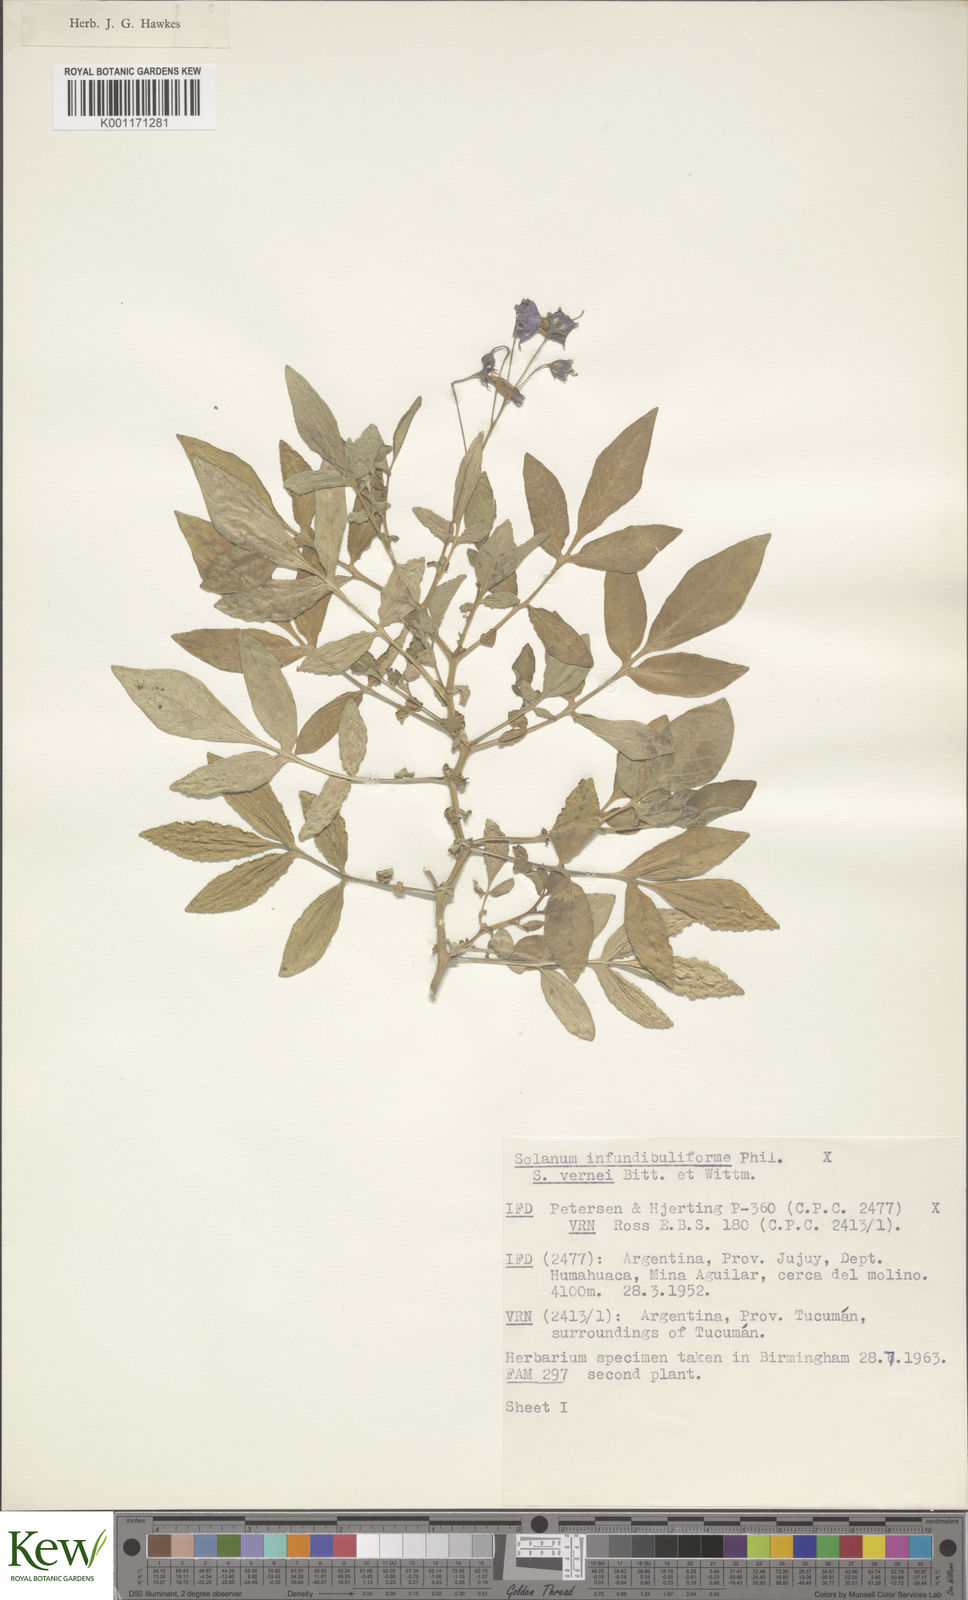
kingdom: Plantae
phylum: Tracheophyta
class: Magnoliopsida
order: Solanales
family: Solanaceae
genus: Solanum
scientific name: Solanum infundibuliforme
